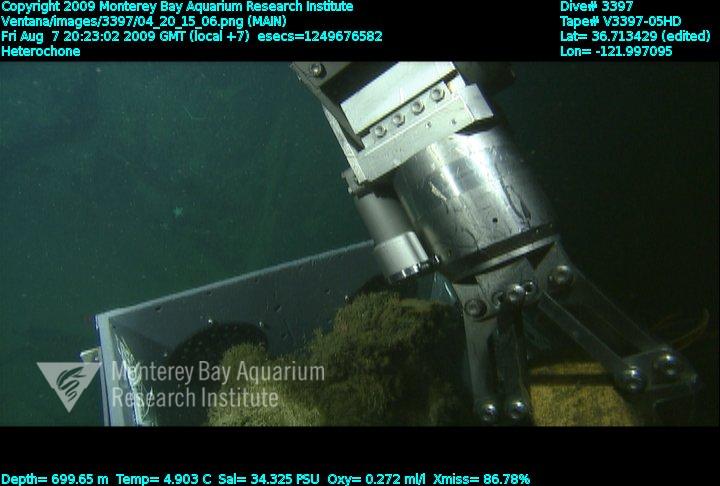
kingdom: Animalia
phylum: Porifera
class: Hexactinellida
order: Sceptrulophora
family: Aphrocallistidae
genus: Heterochone
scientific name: Heterochone
